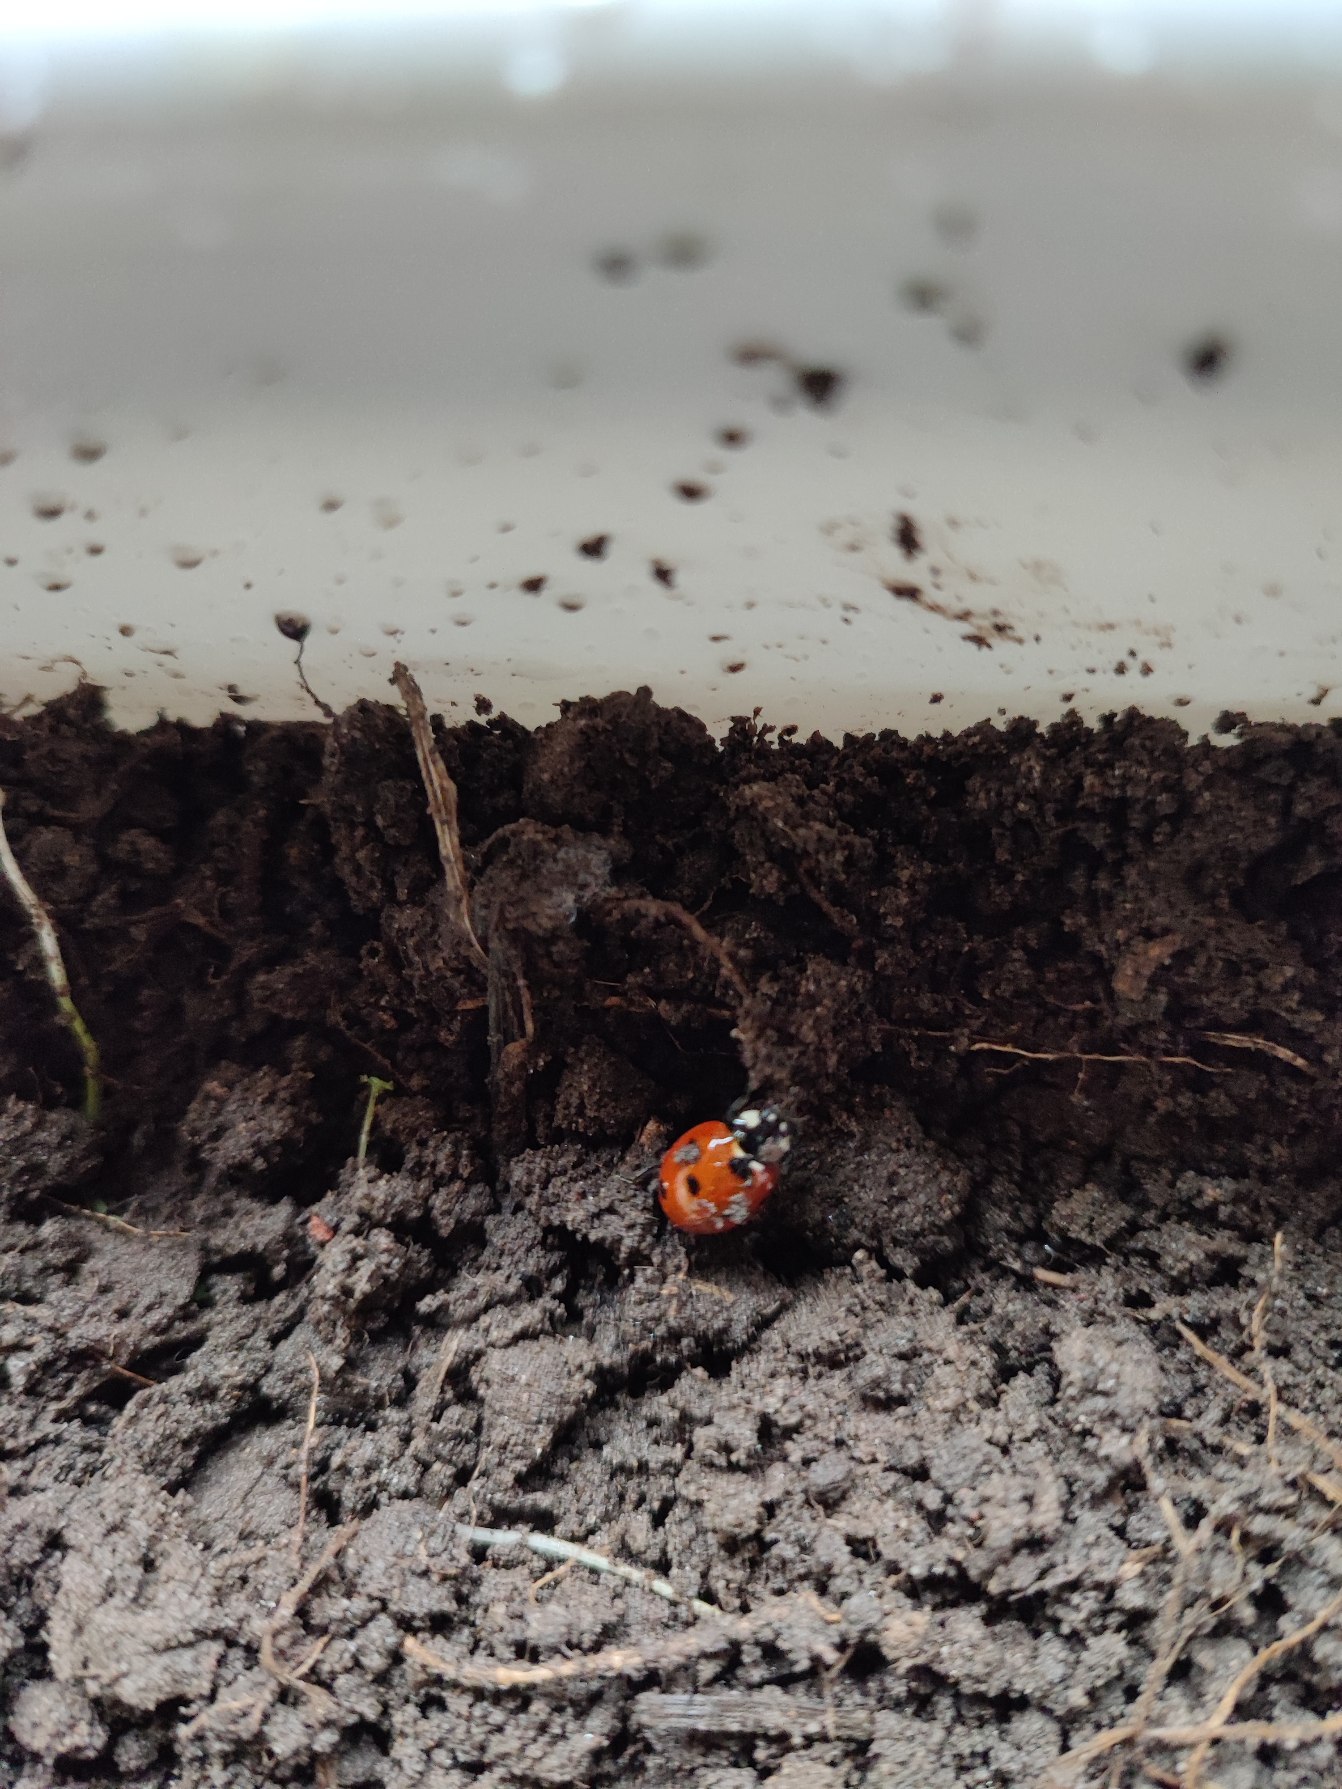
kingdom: Animalia
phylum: Arthropoda
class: Insecta
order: Coleoptera
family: Coccinellidae
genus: Coccinella
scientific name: Coccinella septempunctata
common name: Syvplettet mariehøne
